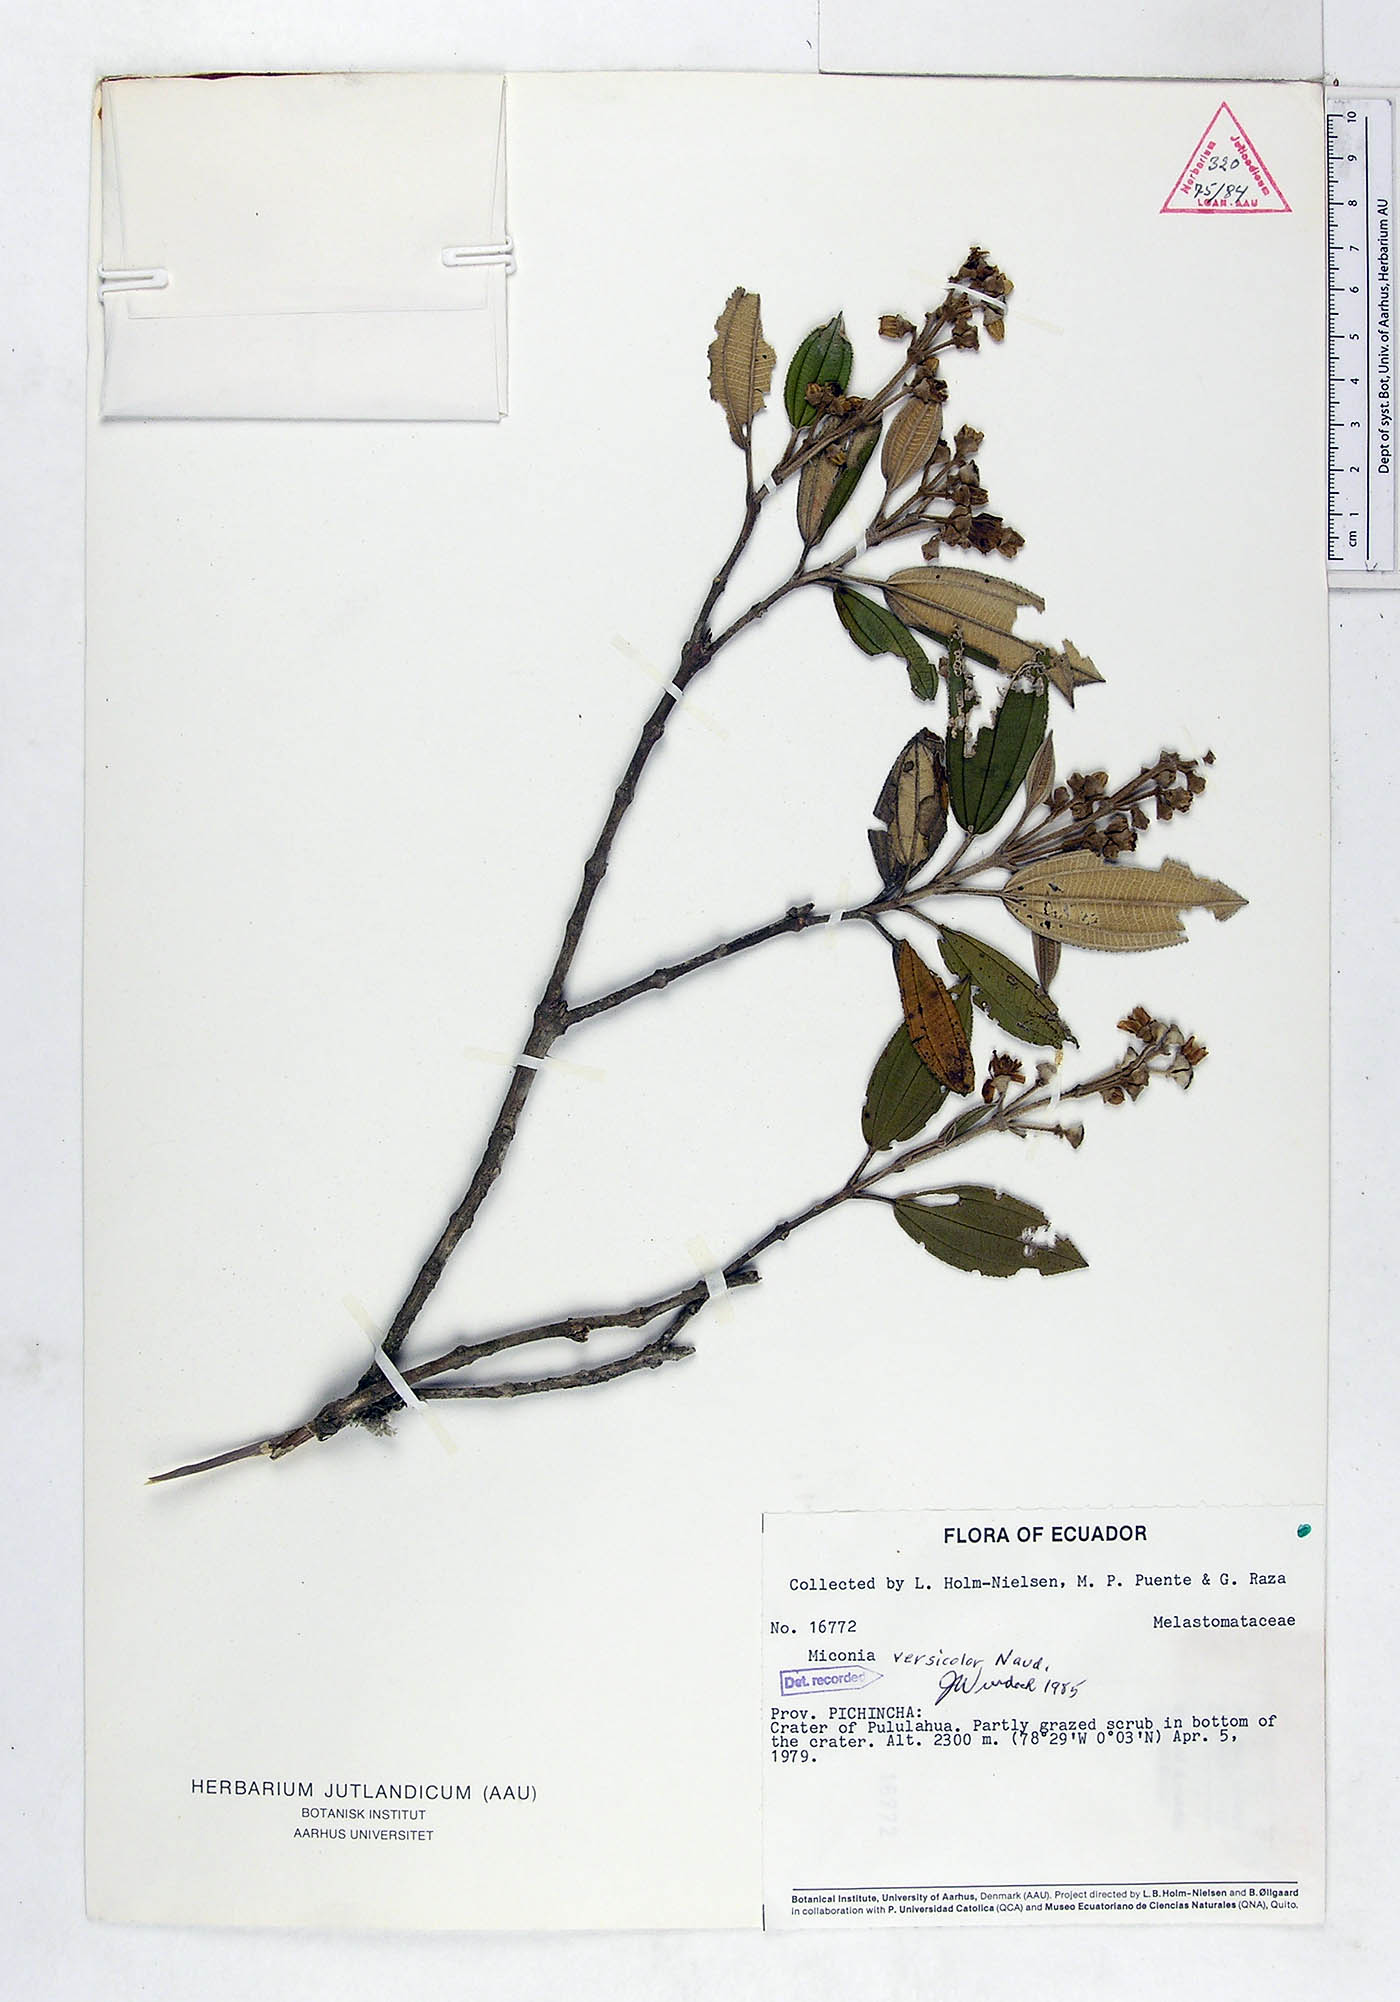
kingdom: Plantae
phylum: Tracheophyta
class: Magnoliopsida
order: Myrtales
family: Melastomataceae
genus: Miconia
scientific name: Miconia versicolor
